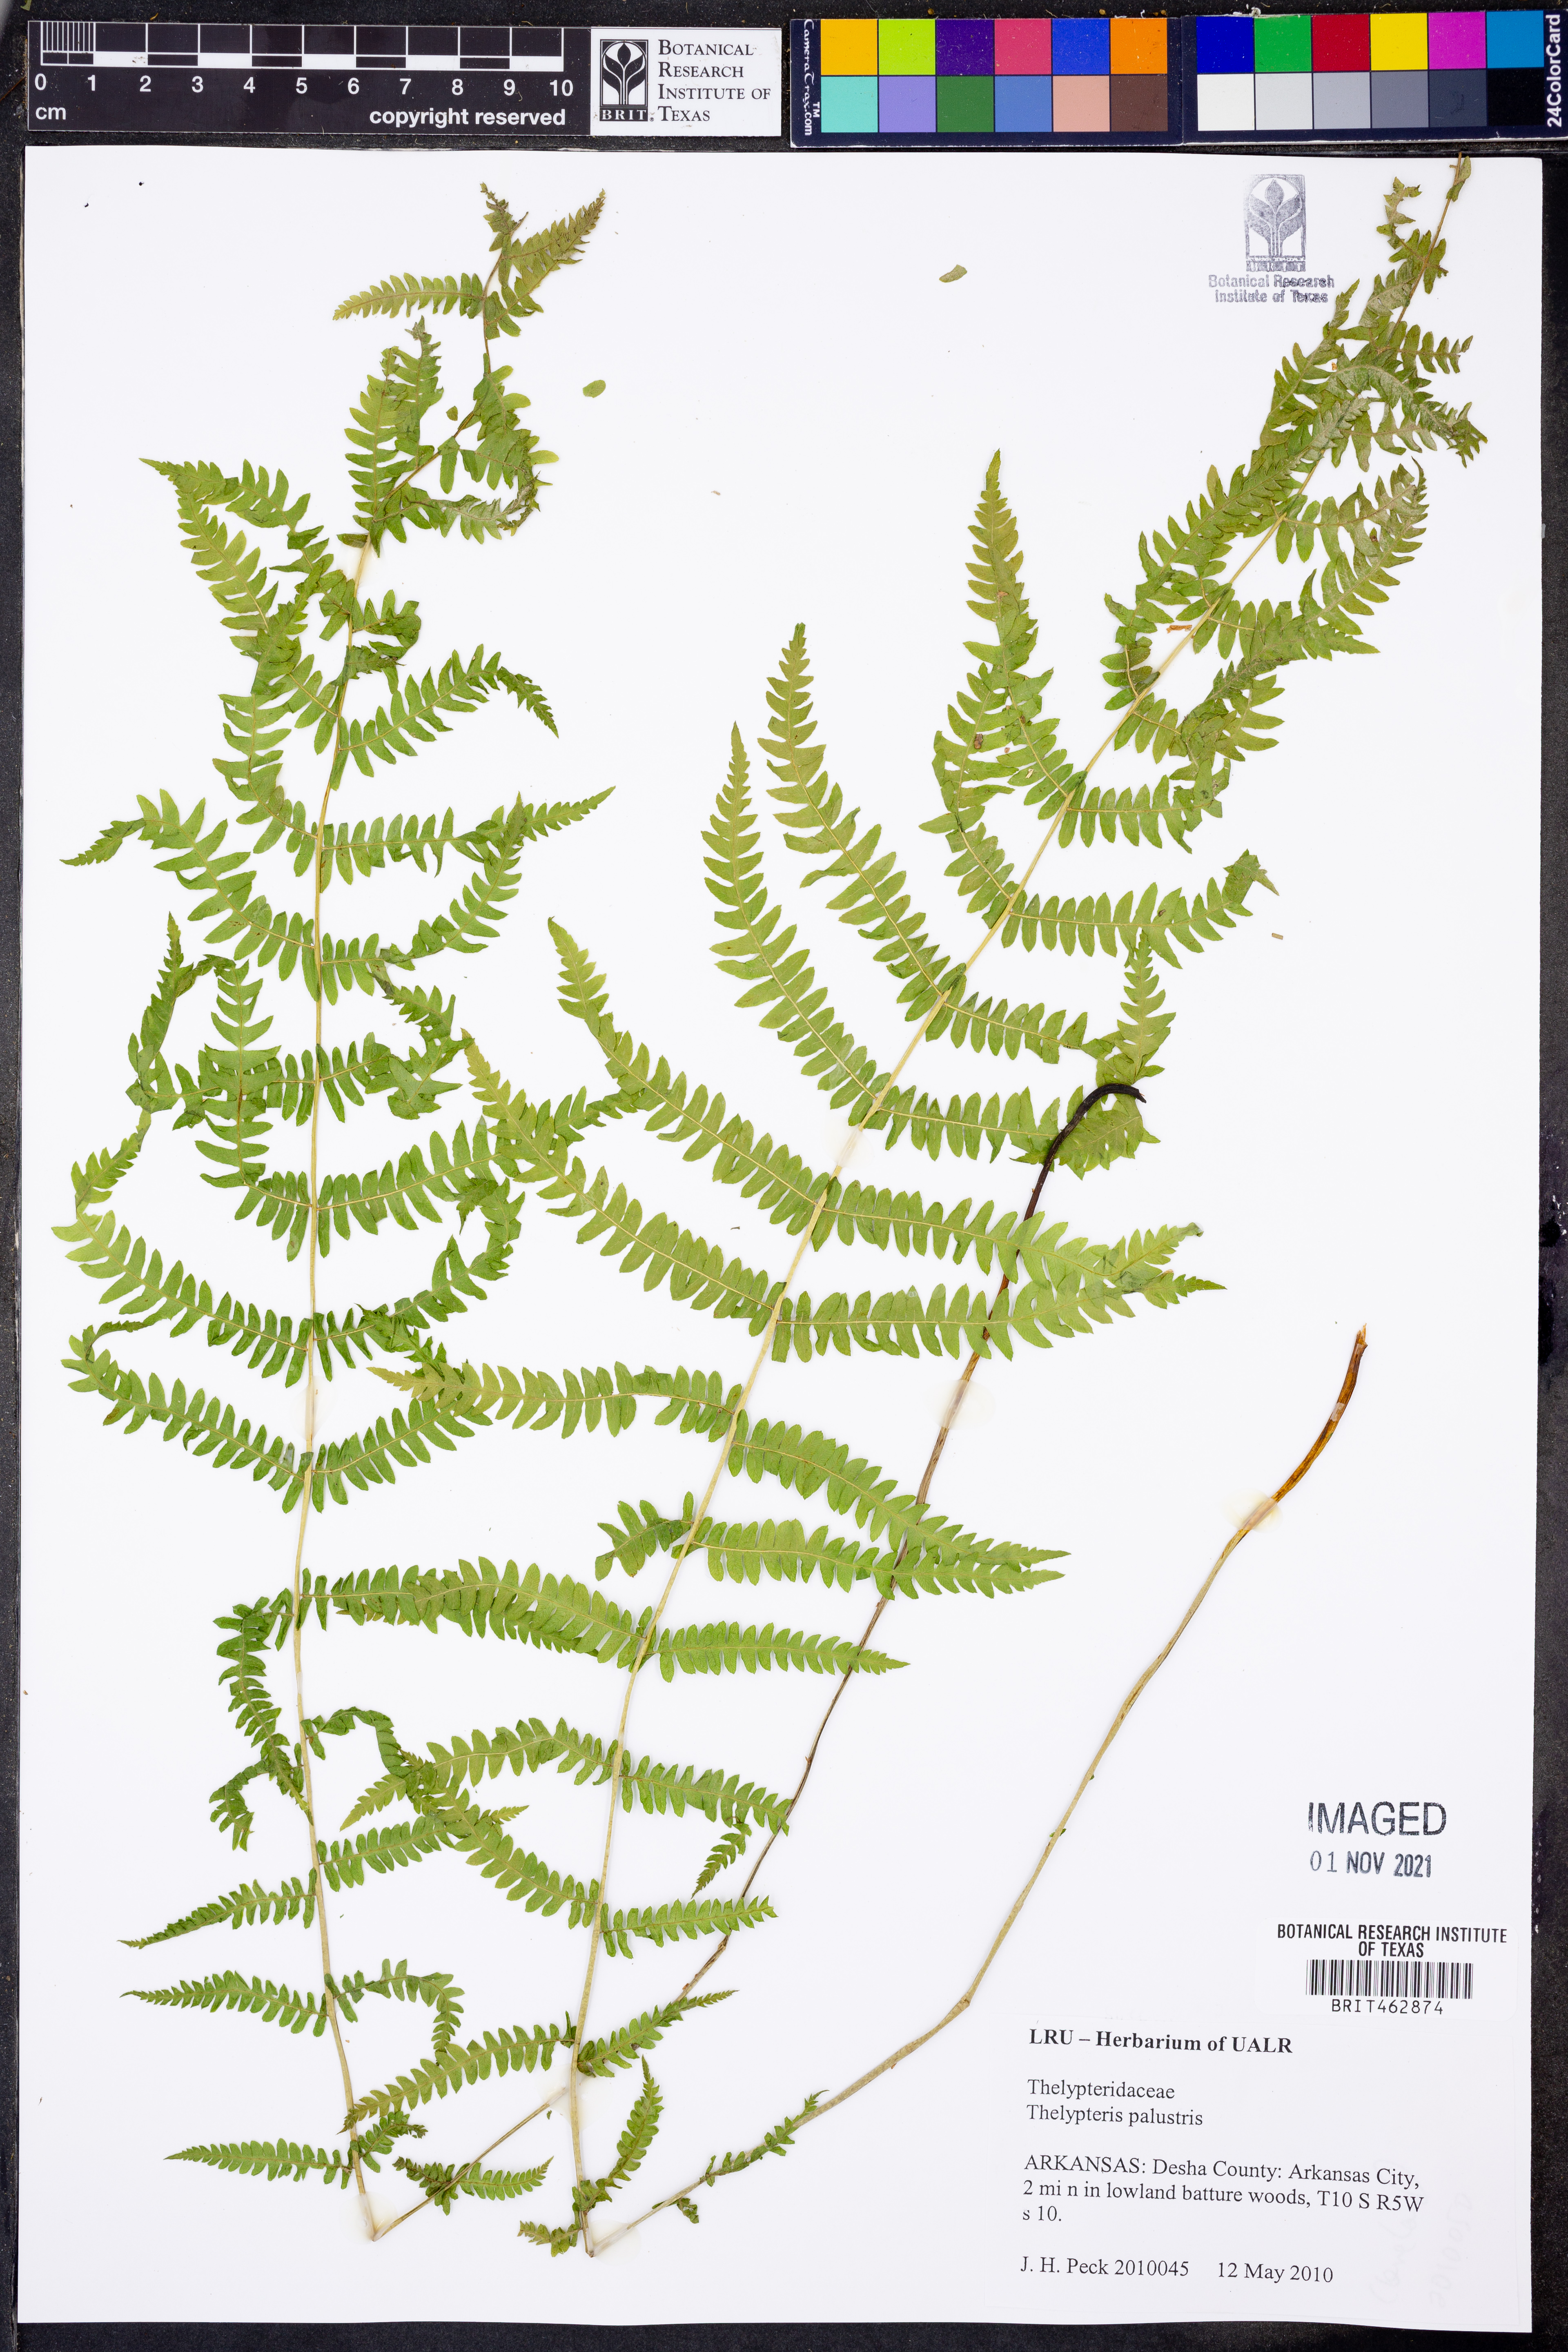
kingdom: Plantae
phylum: Tracheophyta
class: Polypodiopsida
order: Polypodiales
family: Thelypteridaceae
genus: Thelypteris
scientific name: Thelypteris palustris
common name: Marsh fern
